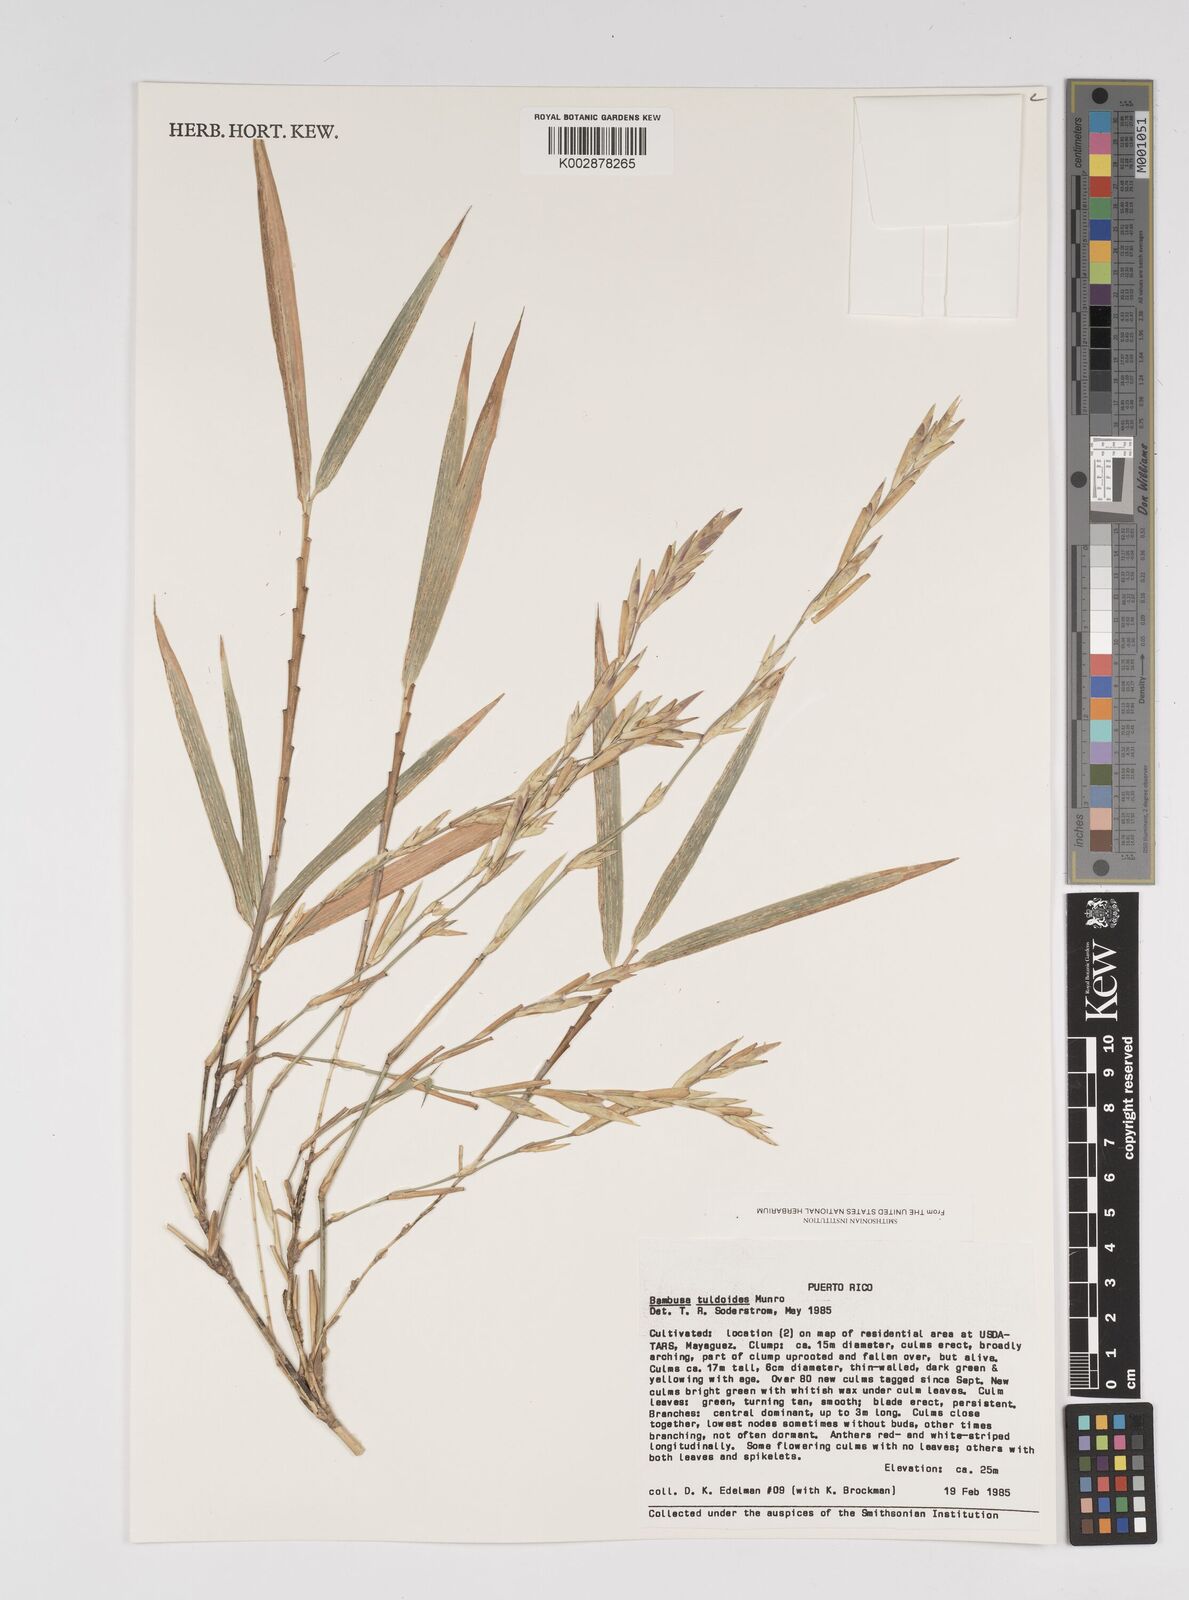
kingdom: Plantae
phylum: Tracheophyta
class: Liliopsida
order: Poales
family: Poaceae
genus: Bambusa
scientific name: Bambusa tuldoides
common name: Verdant bamboo
